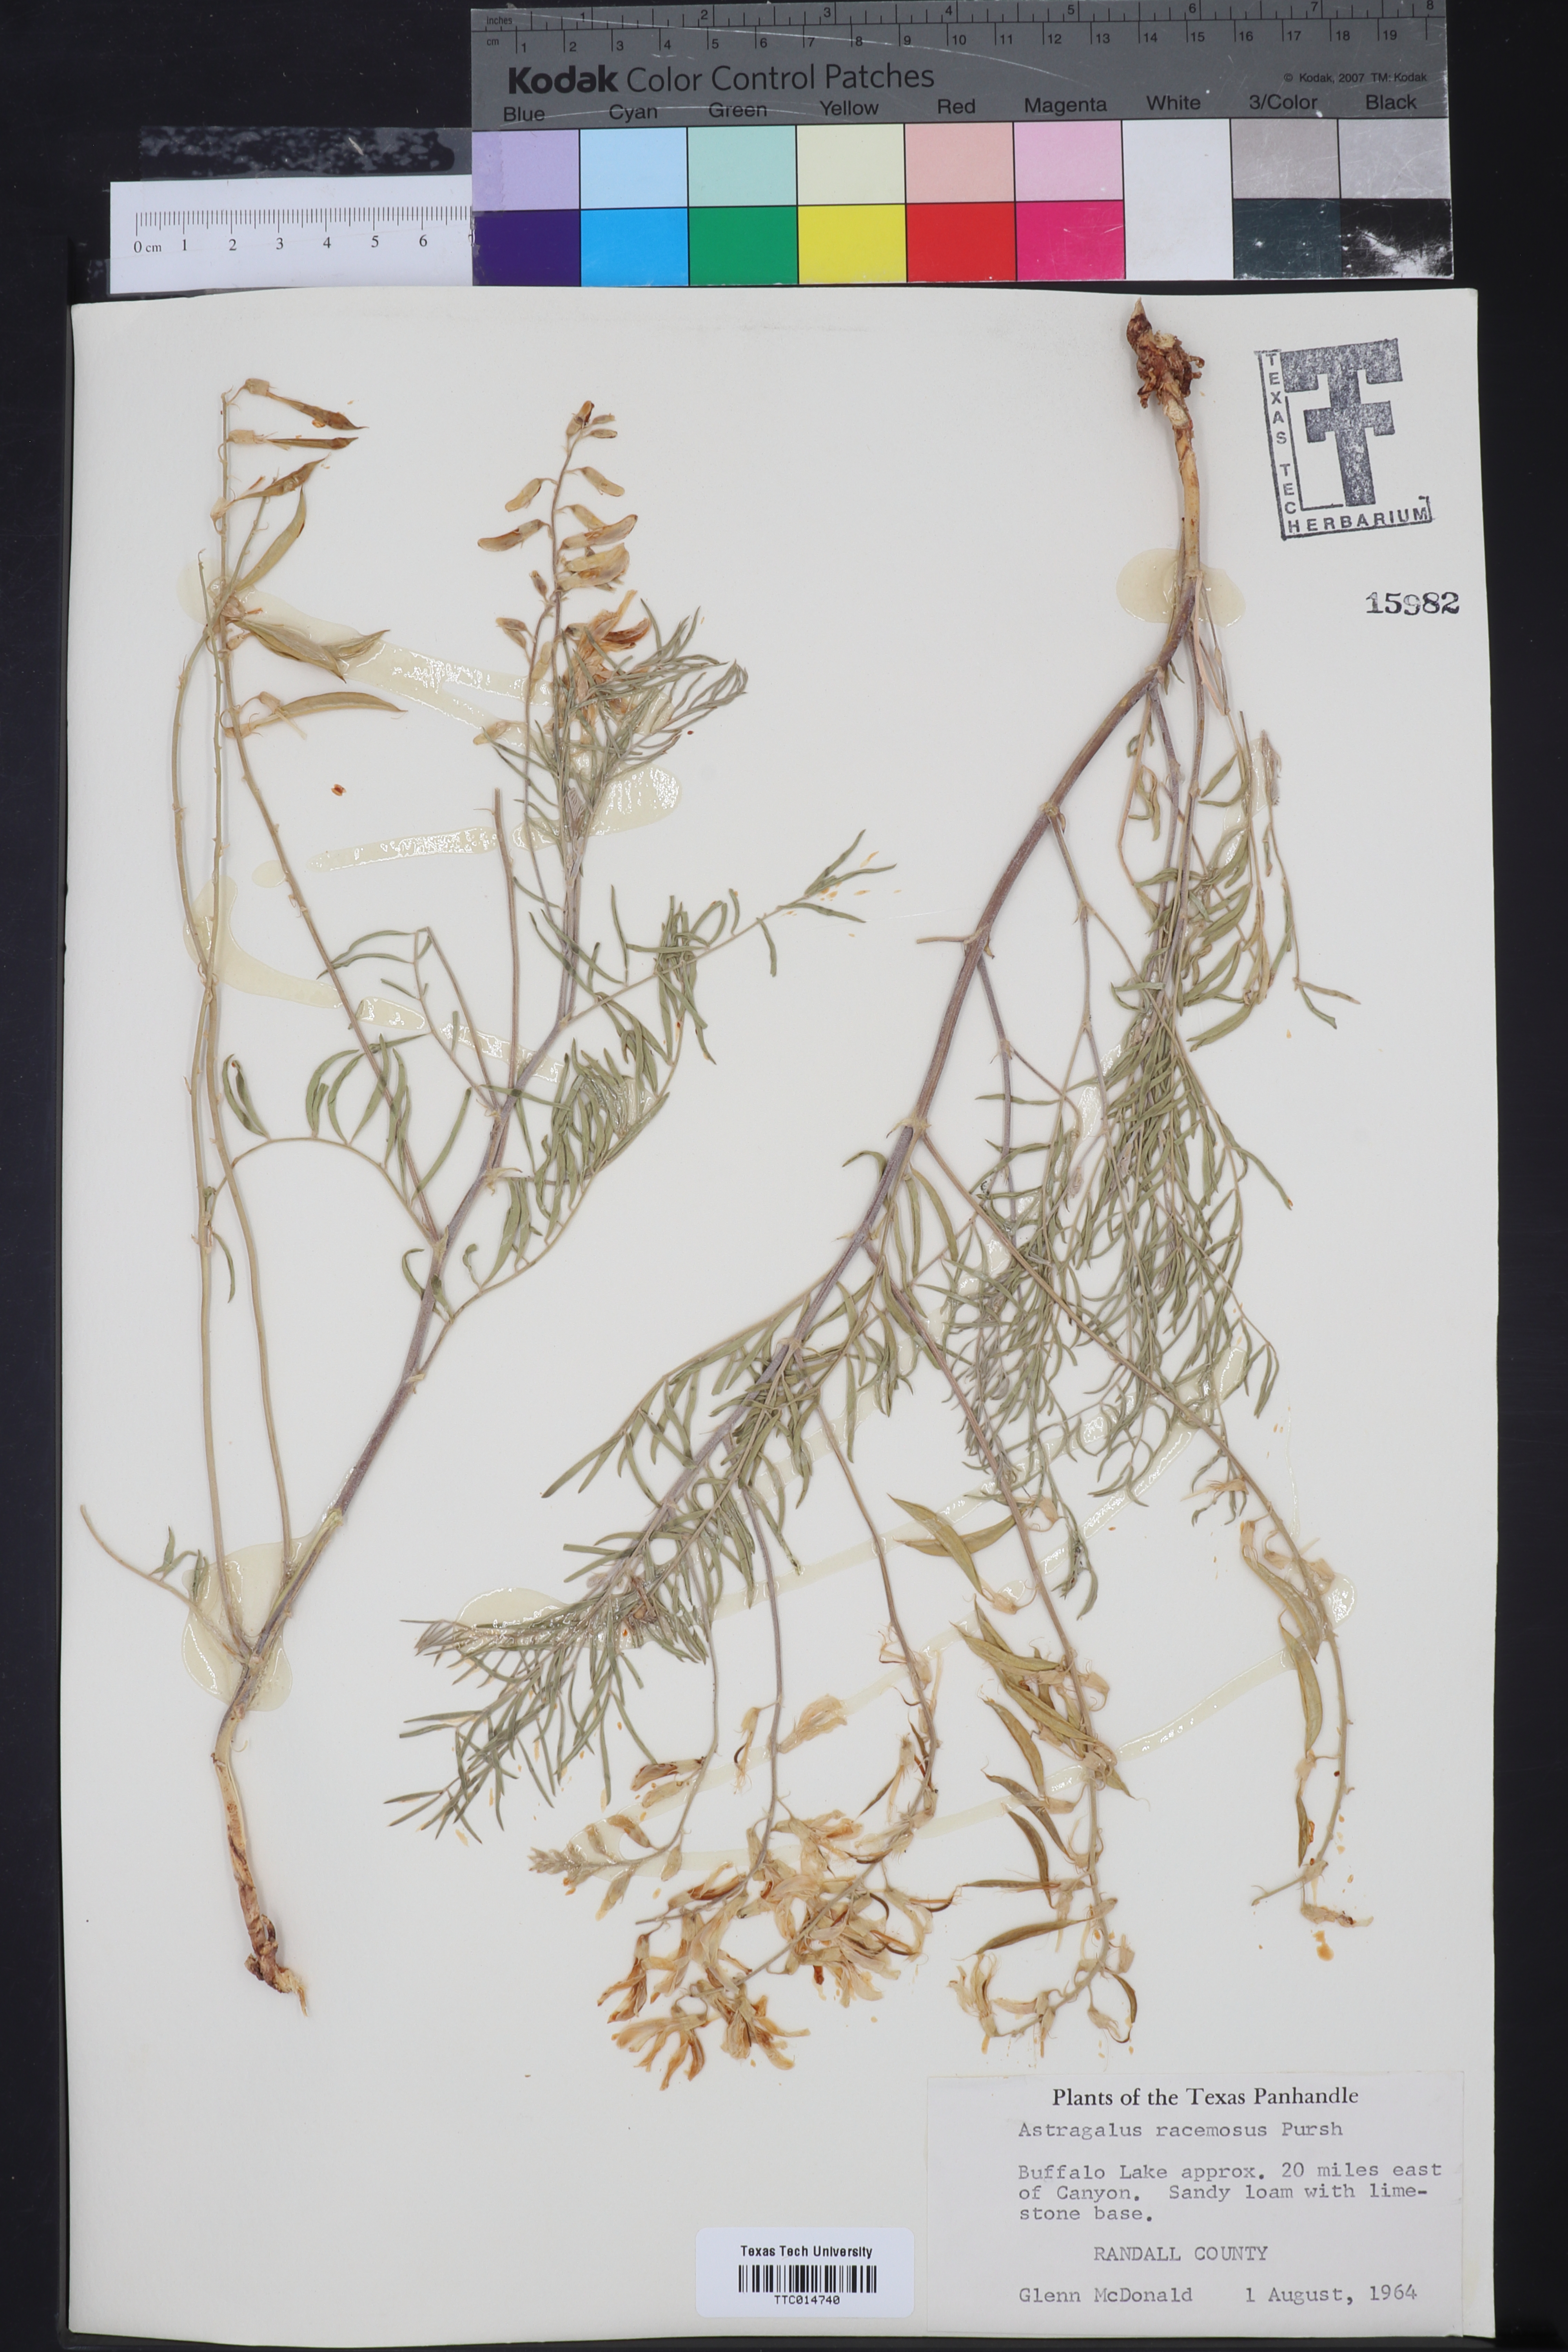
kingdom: Plantae
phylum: Tracheophyta
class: Magnoliopsida
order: Fabales
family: Fabaceae
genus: Astragalus
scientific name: Astragalus racemosus
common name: Alkali milk-vetch
